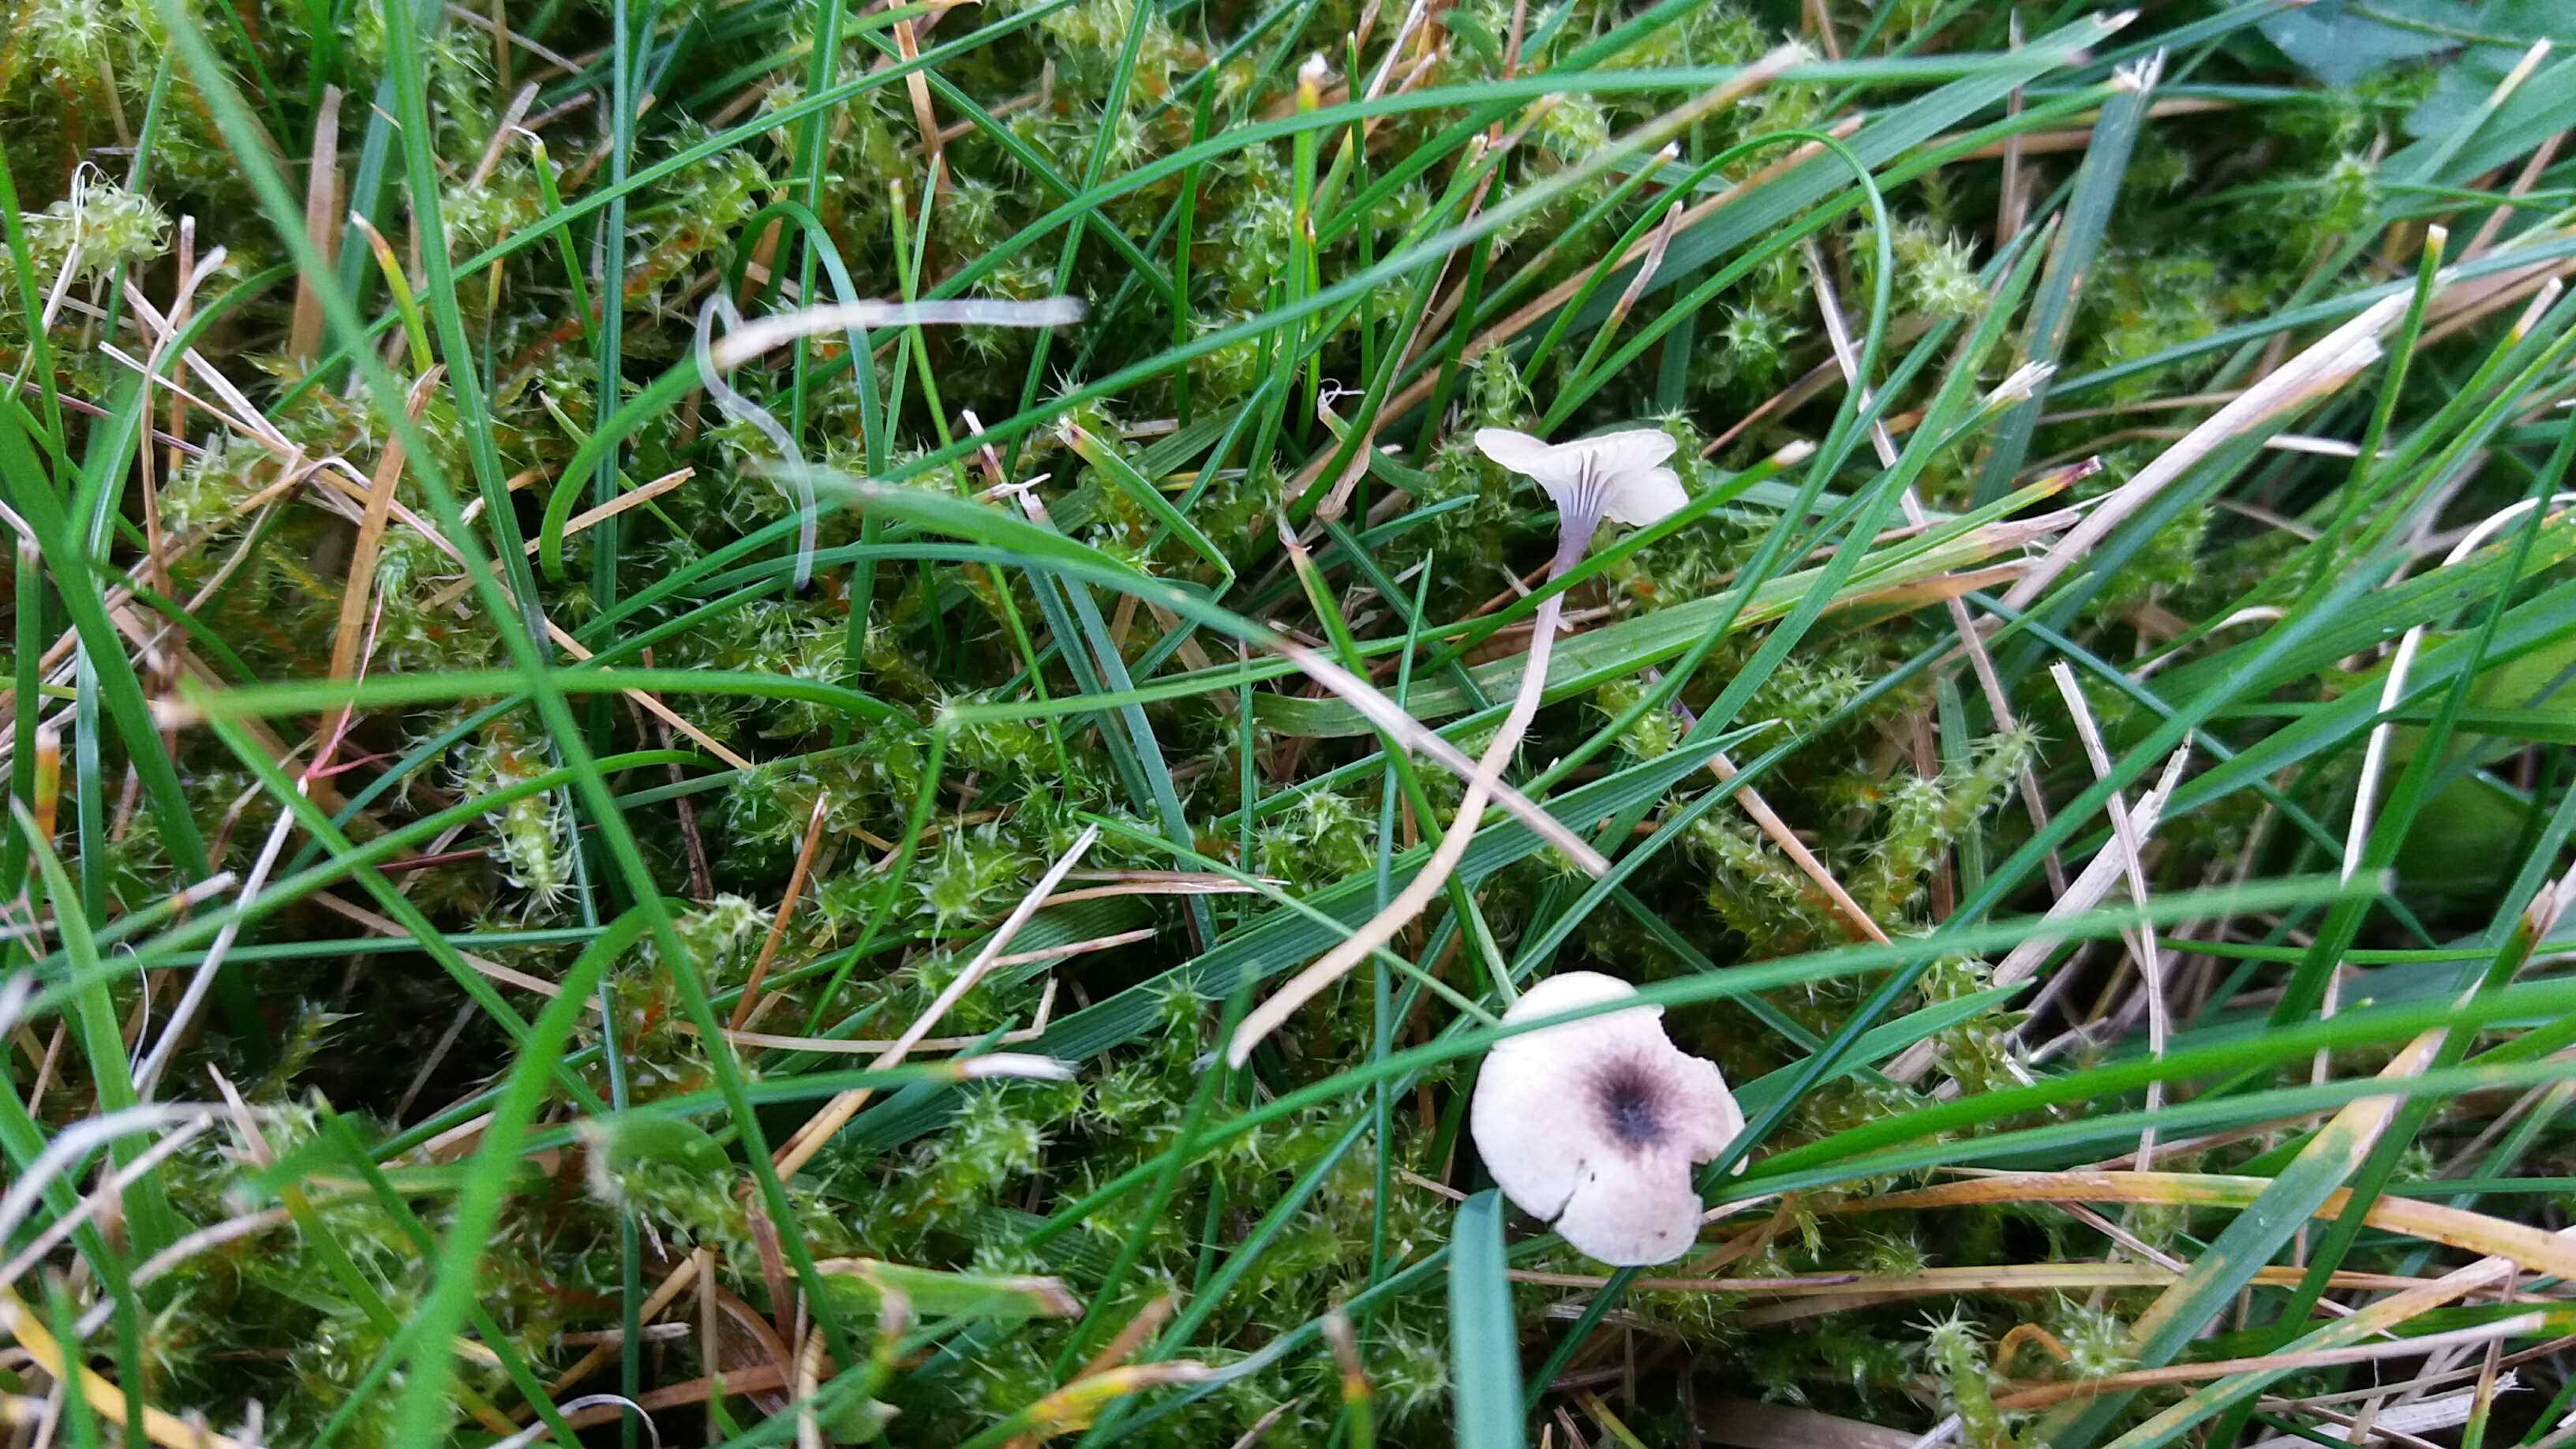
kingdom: Fungi
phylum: Basidiomycota
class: Agaricomycetes
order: Hymenochaetales
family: Rickenellaceae
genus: Rickenella
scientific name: Rickenella swartzii
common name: finstokket mosnavlehat
